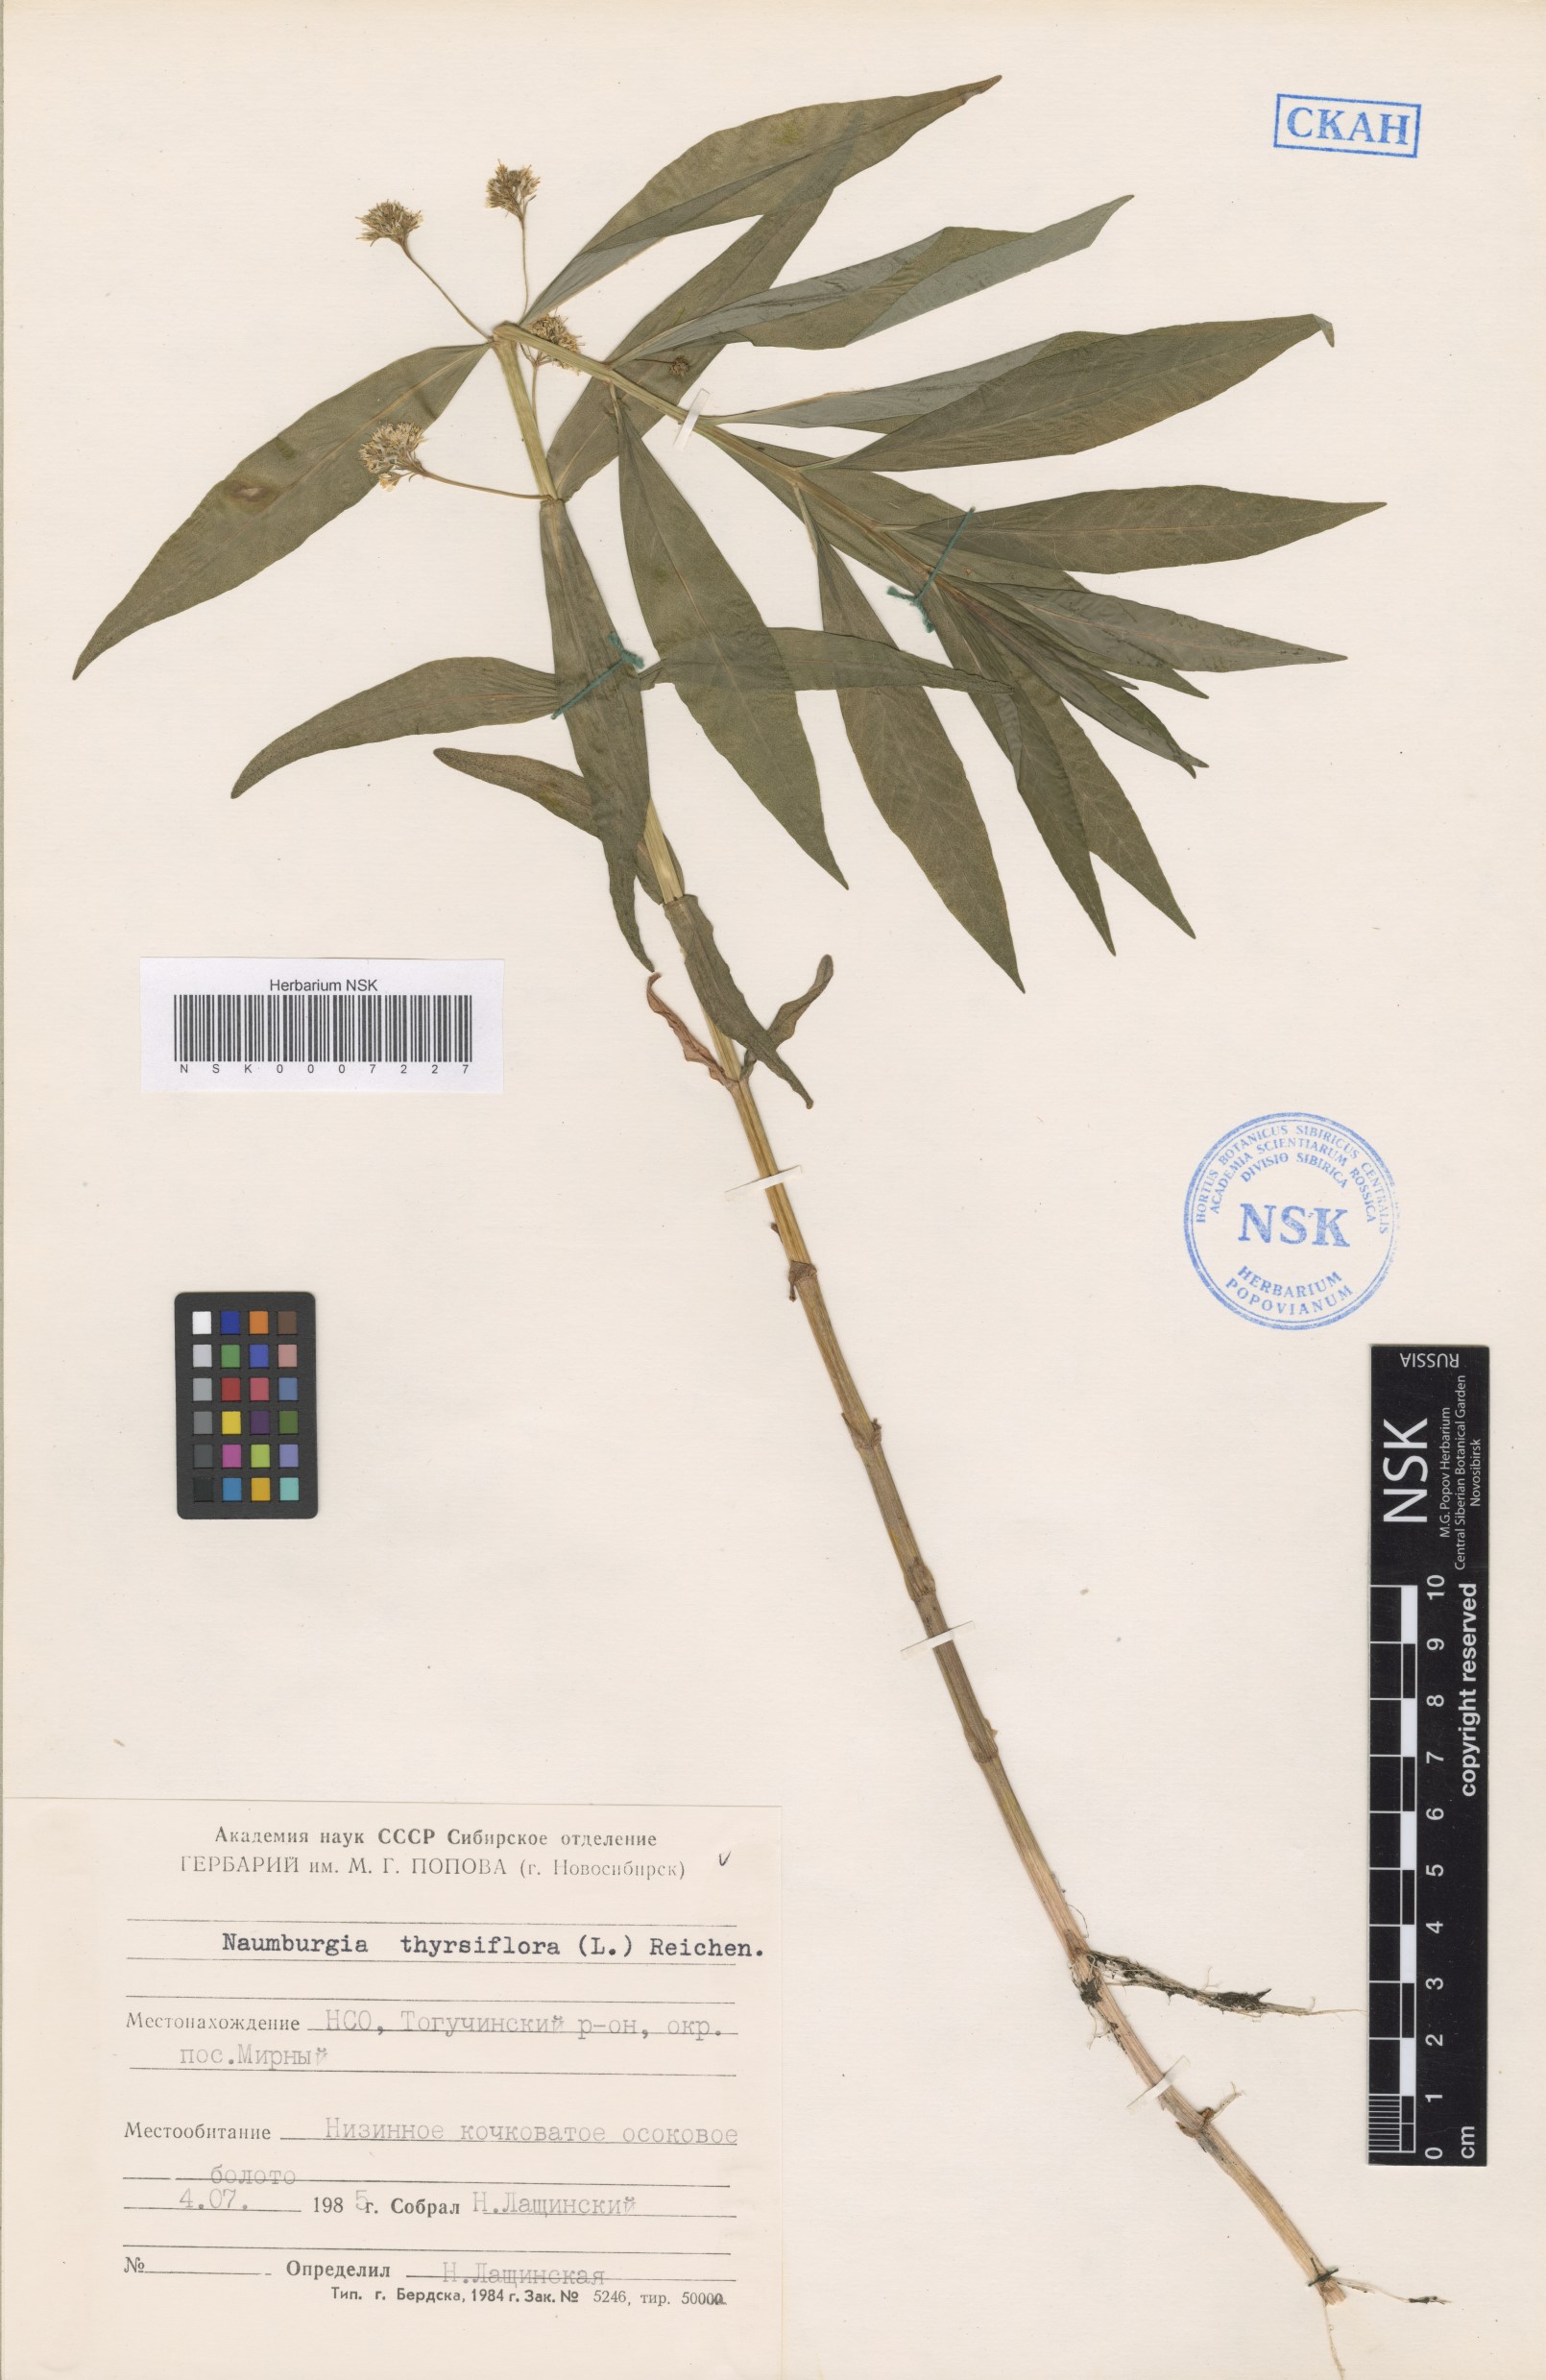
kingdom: Plantae
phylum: Tracheophyta
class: Magnoliopsida
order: Ericales
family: Primulaceae
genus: Lysimachia
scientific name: Lysimachia thyrsiflora
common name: Tufted loosestrife
